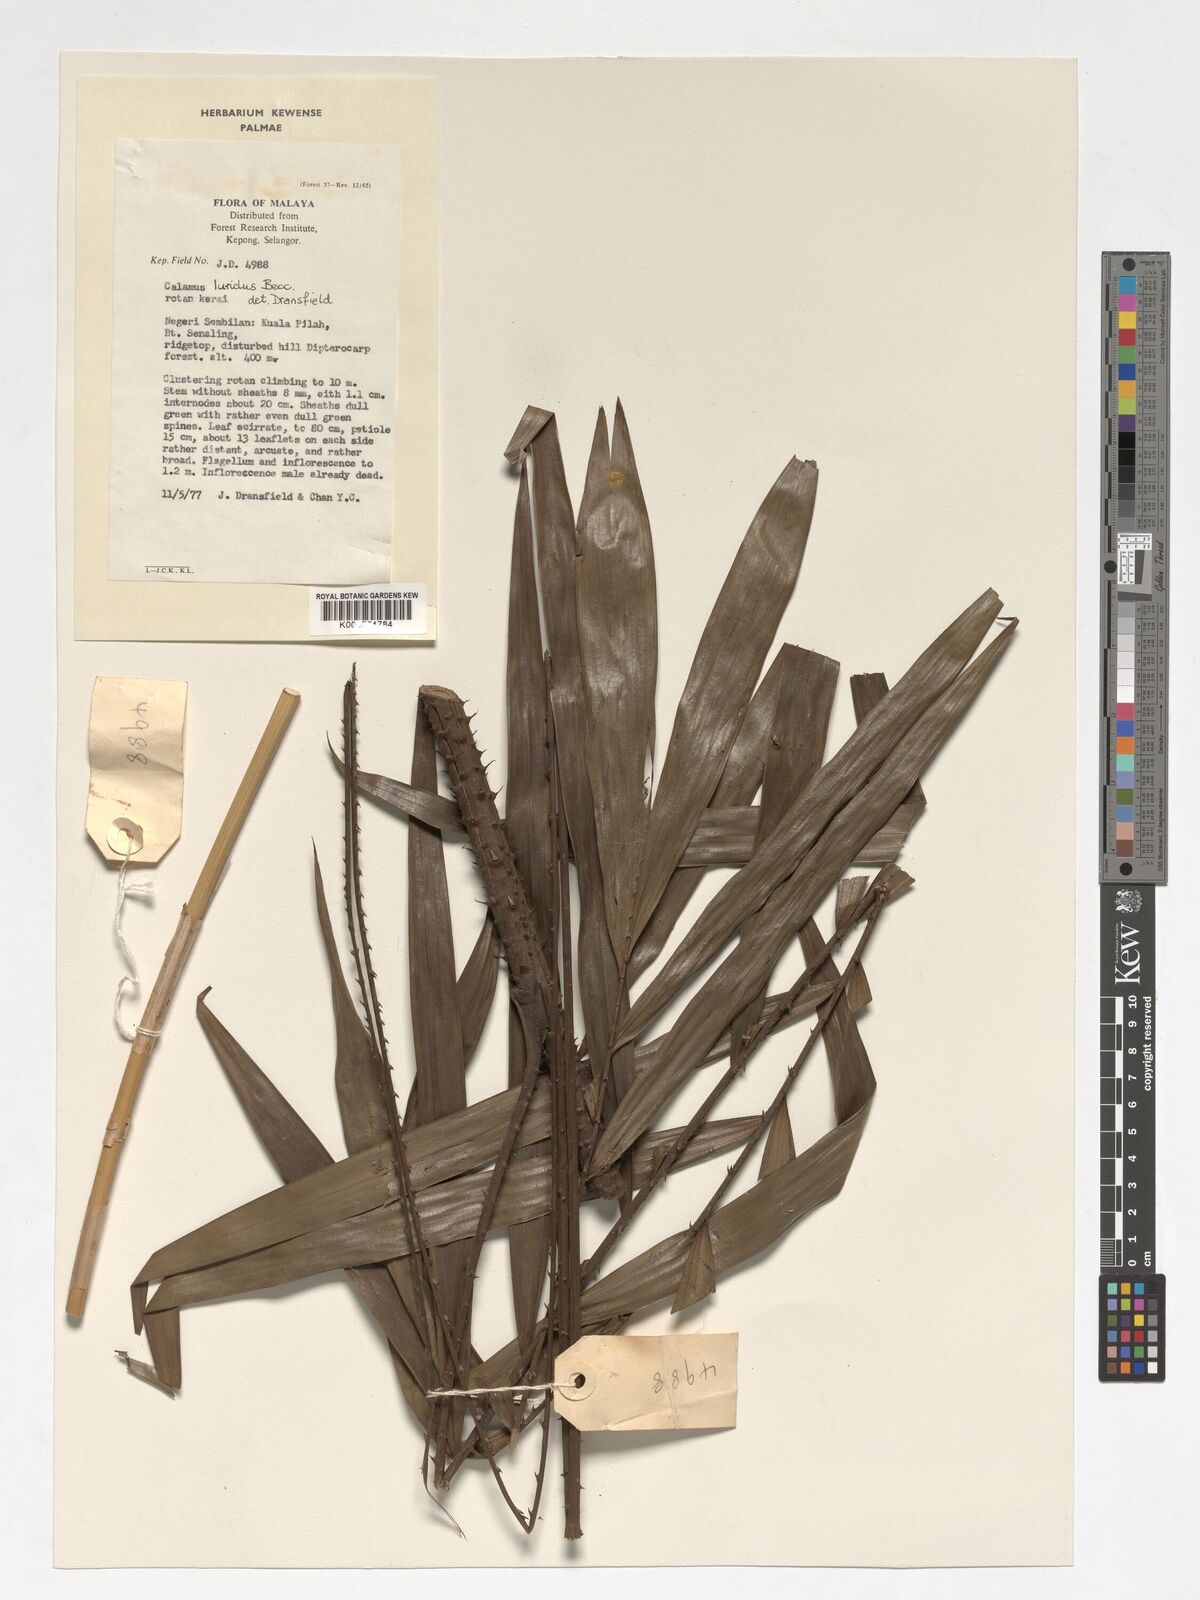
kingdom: Plantae
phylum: Tracheophyta
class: Liliopsida
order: Arecales
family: Arecaceae
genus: Calamus
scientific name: Calamus micranthus
